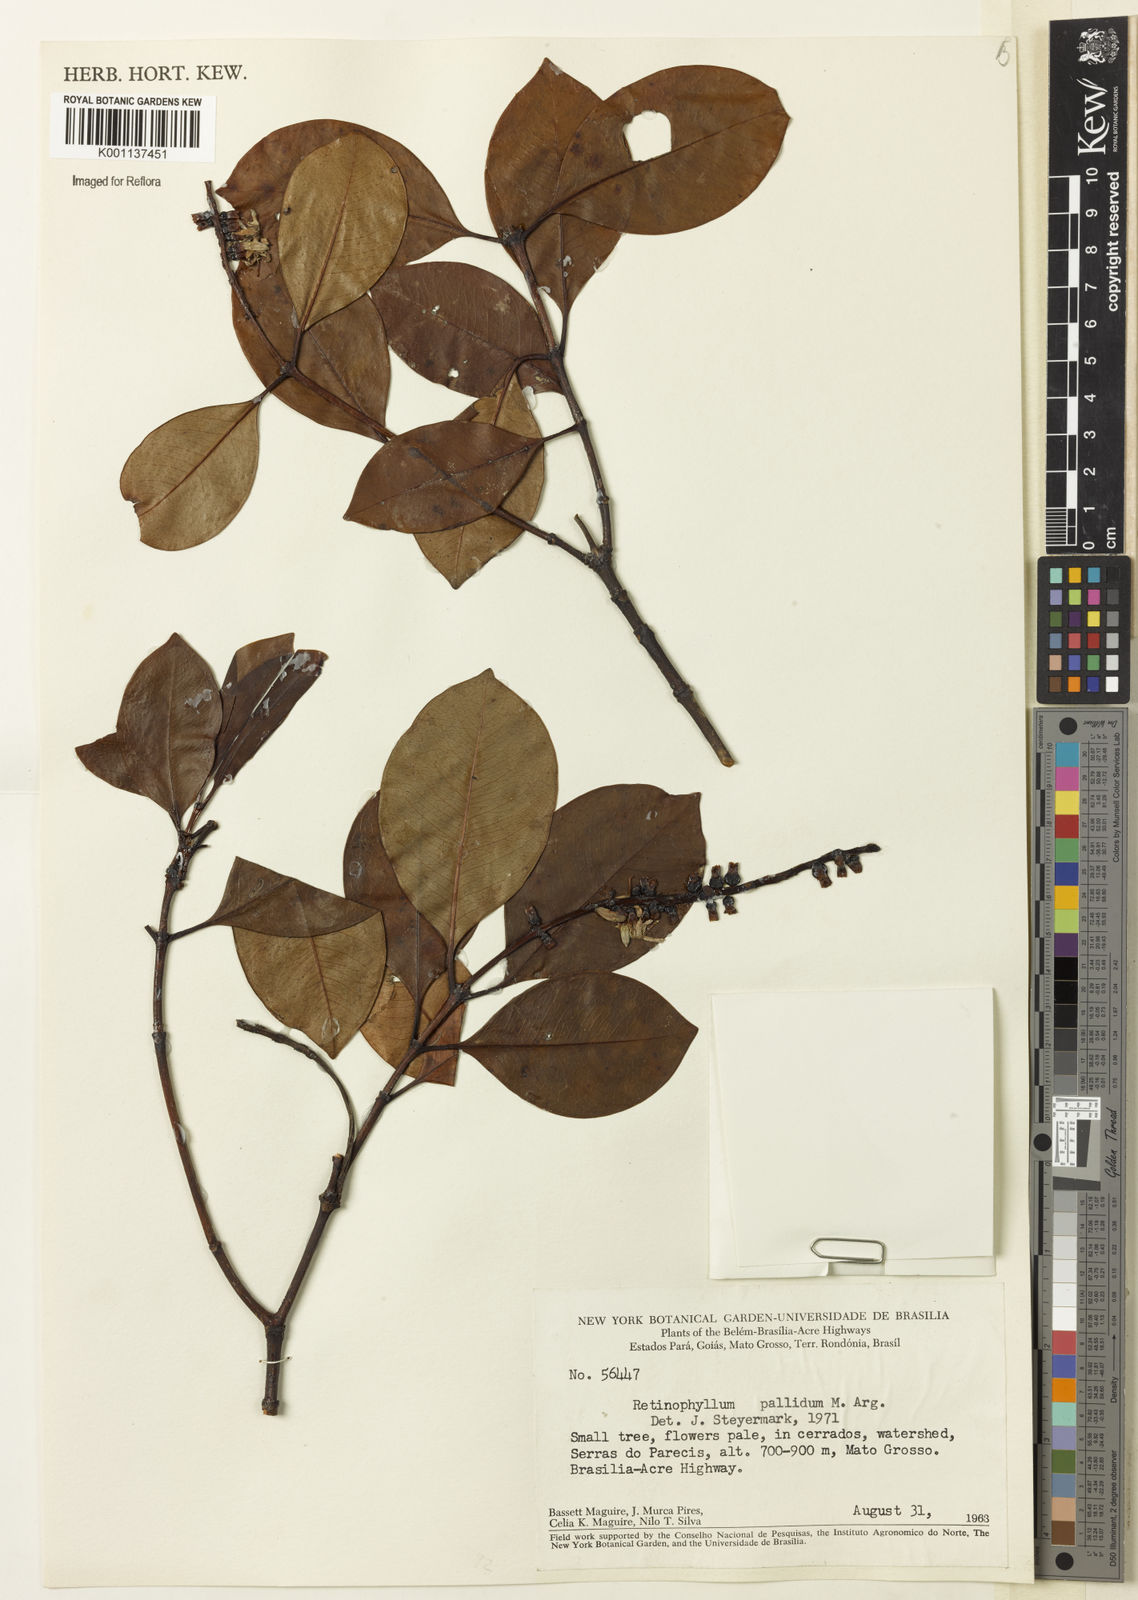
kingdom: Plantae
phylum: Tracheophyta
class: Magnoliopsida
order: Gentianales
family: Rubiaceae
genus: Retiniphyllum
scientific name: Retiniphyllum
